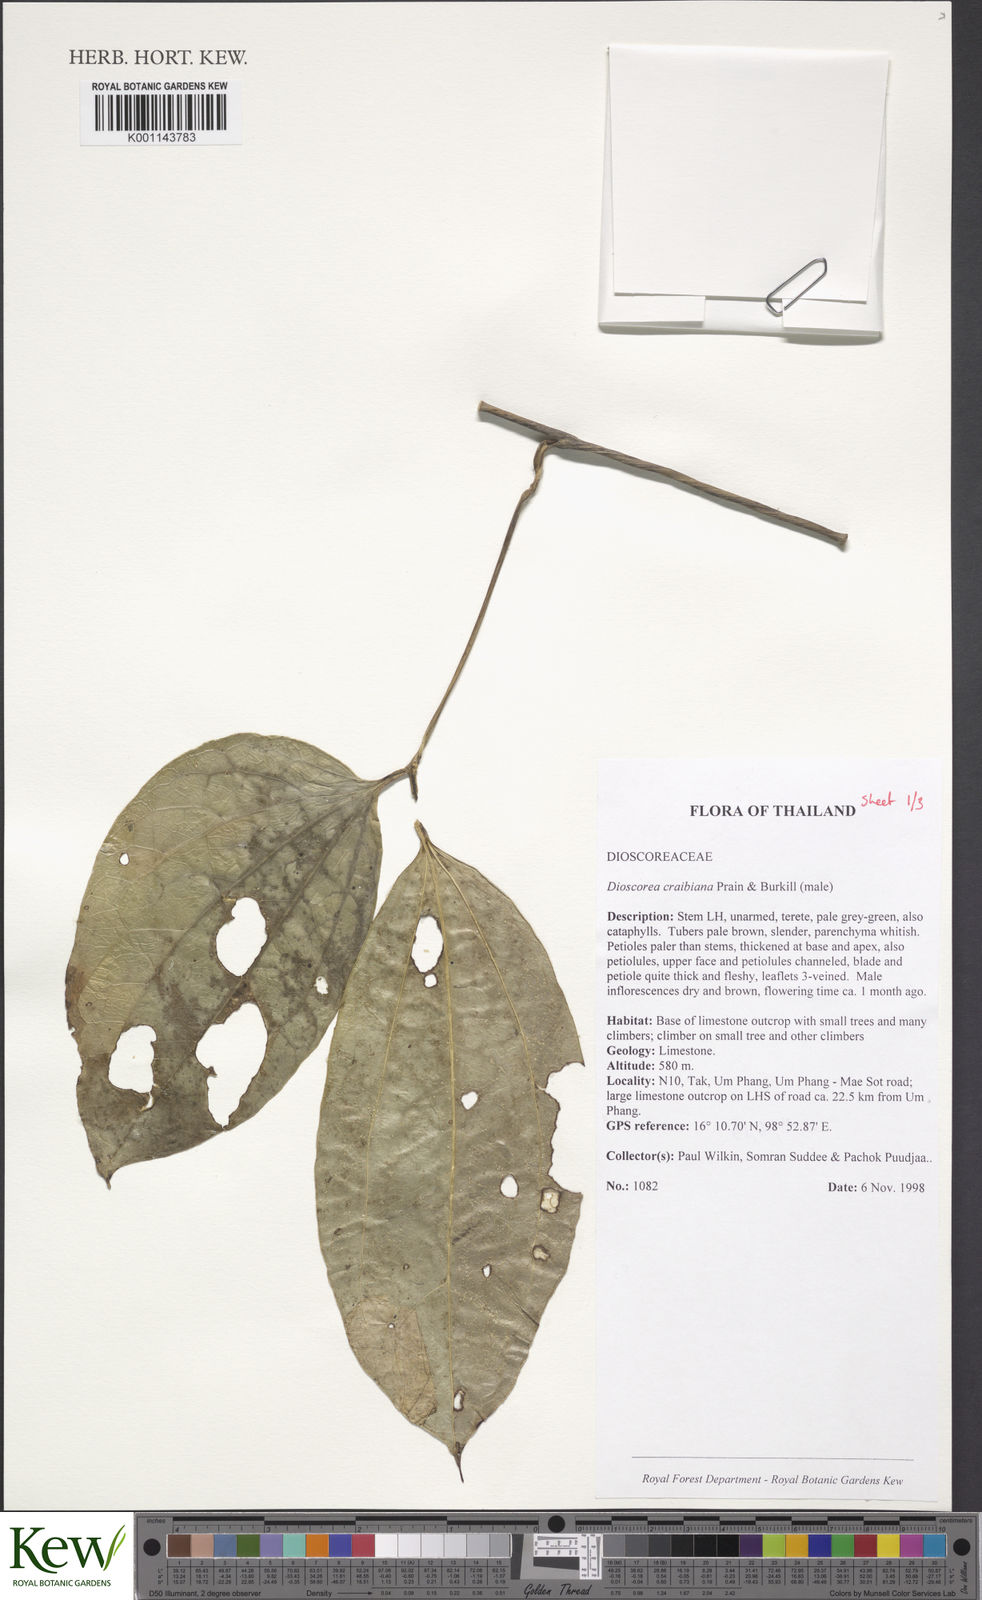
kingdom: Plantae
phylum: Tracheophyta
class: Liliopsida
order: Dioscoreales
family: Dioscoreaceae
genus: Dioscorea
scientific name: Dioscorea craibiana
